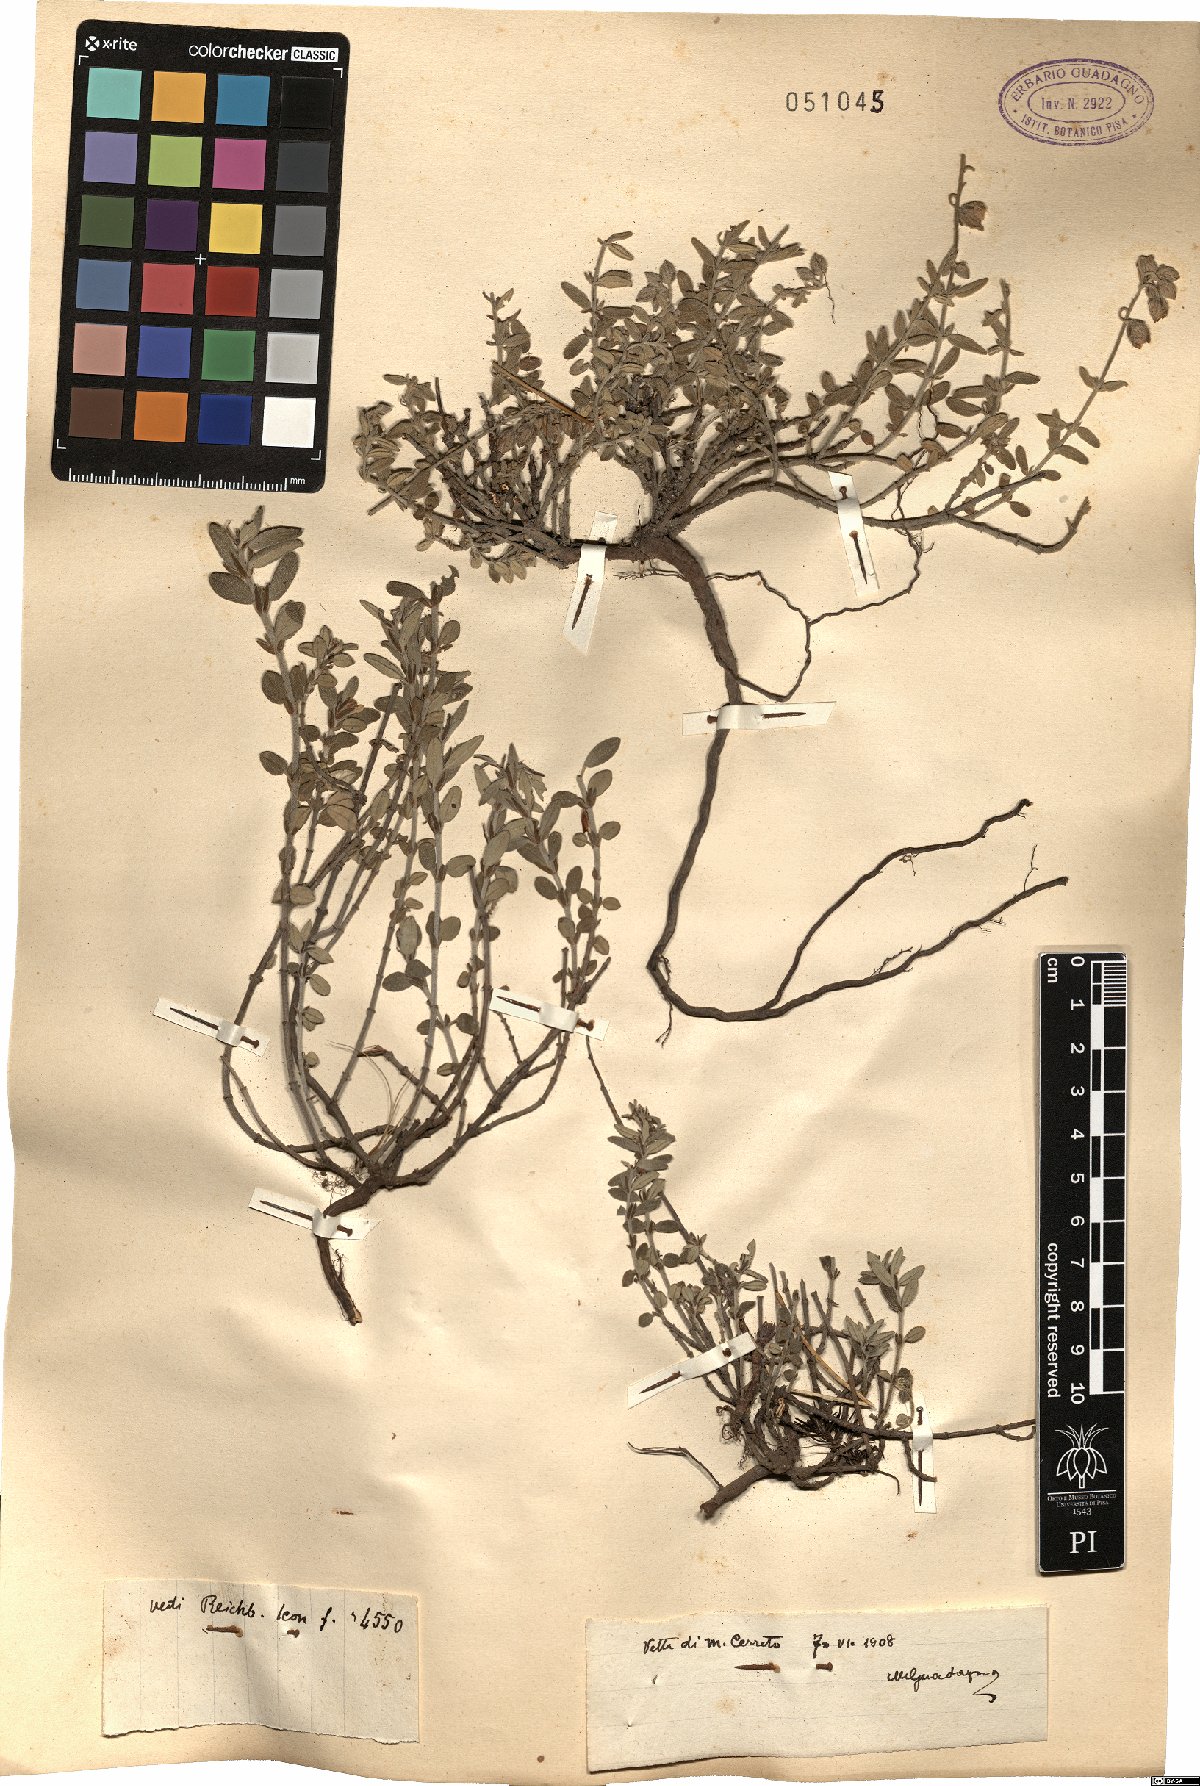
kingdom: Plantae
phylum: Tracheophyta
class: Magnoliopsida
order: Malvales
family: Cistaceae
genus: Helianthemum
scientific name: Helianthemum
